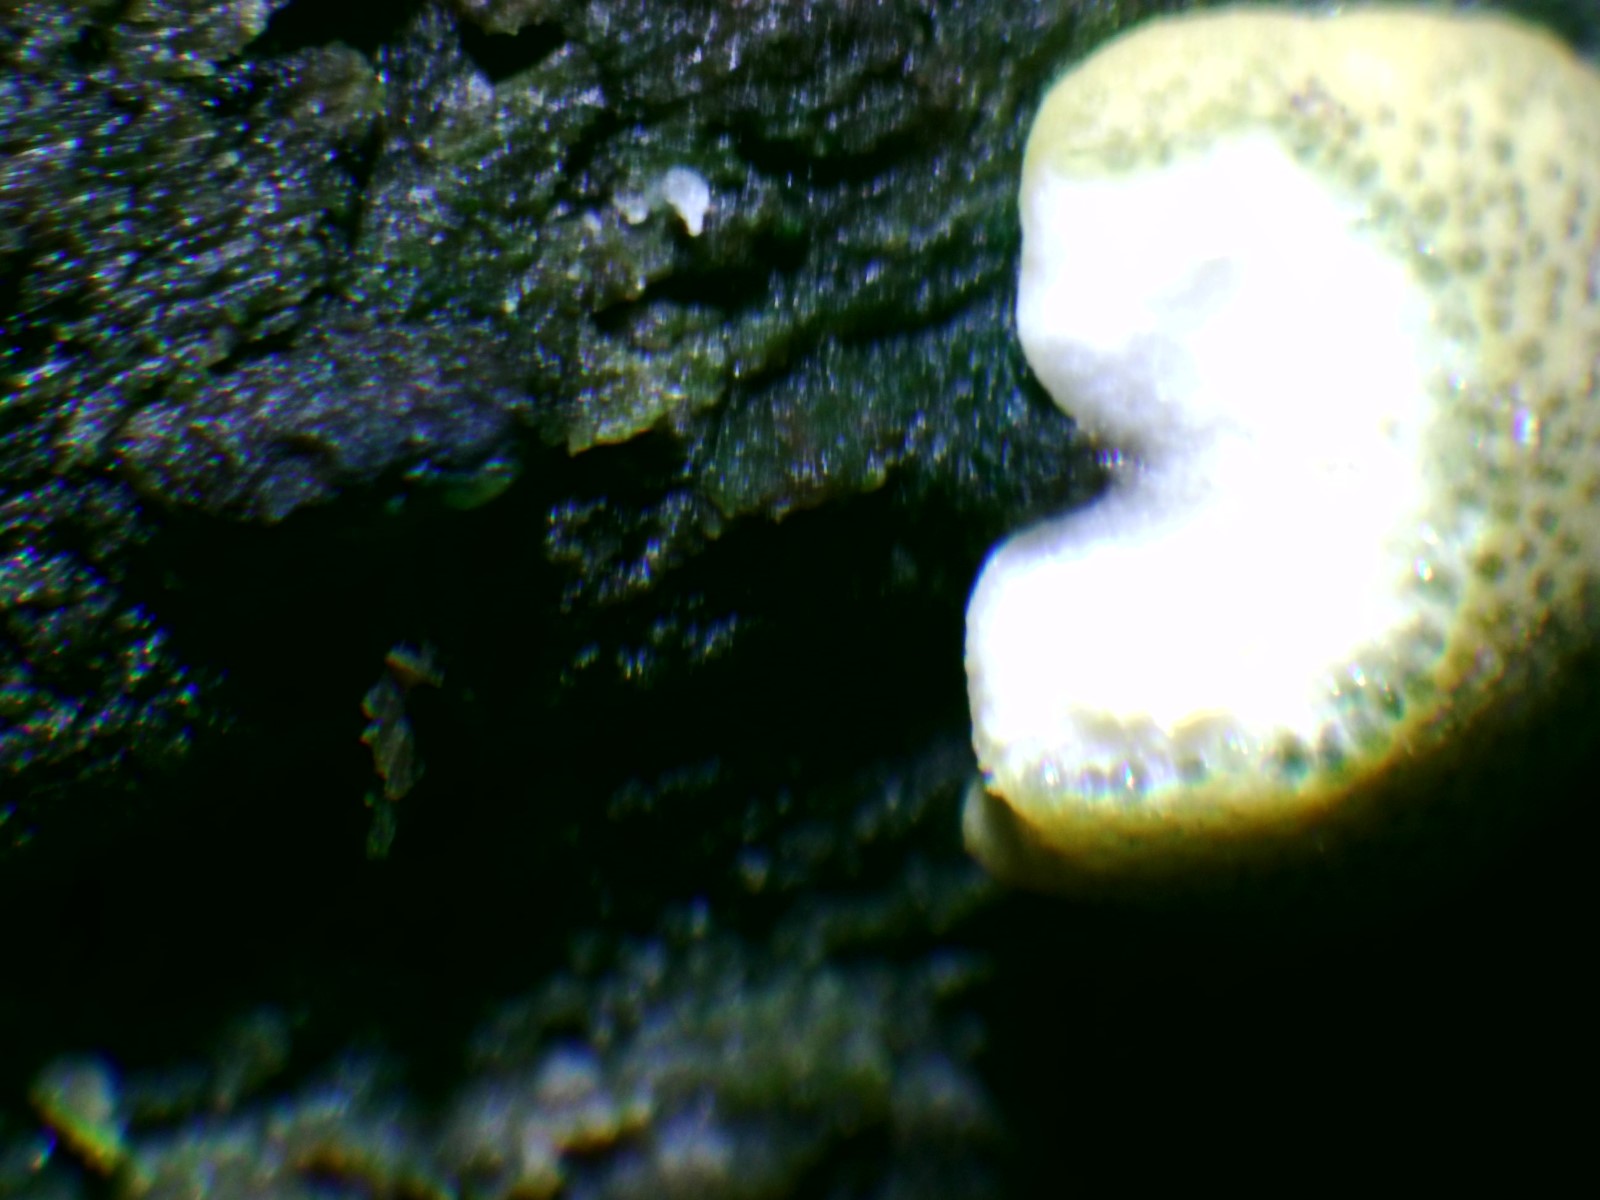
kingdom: Fungi
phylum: Ascomycota
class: Sordariomycetes
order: Hypocreales
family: Hypocreaceae
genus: Trichoderma
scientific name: Trichoderma strictipile
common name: grønprikket kødkerne
